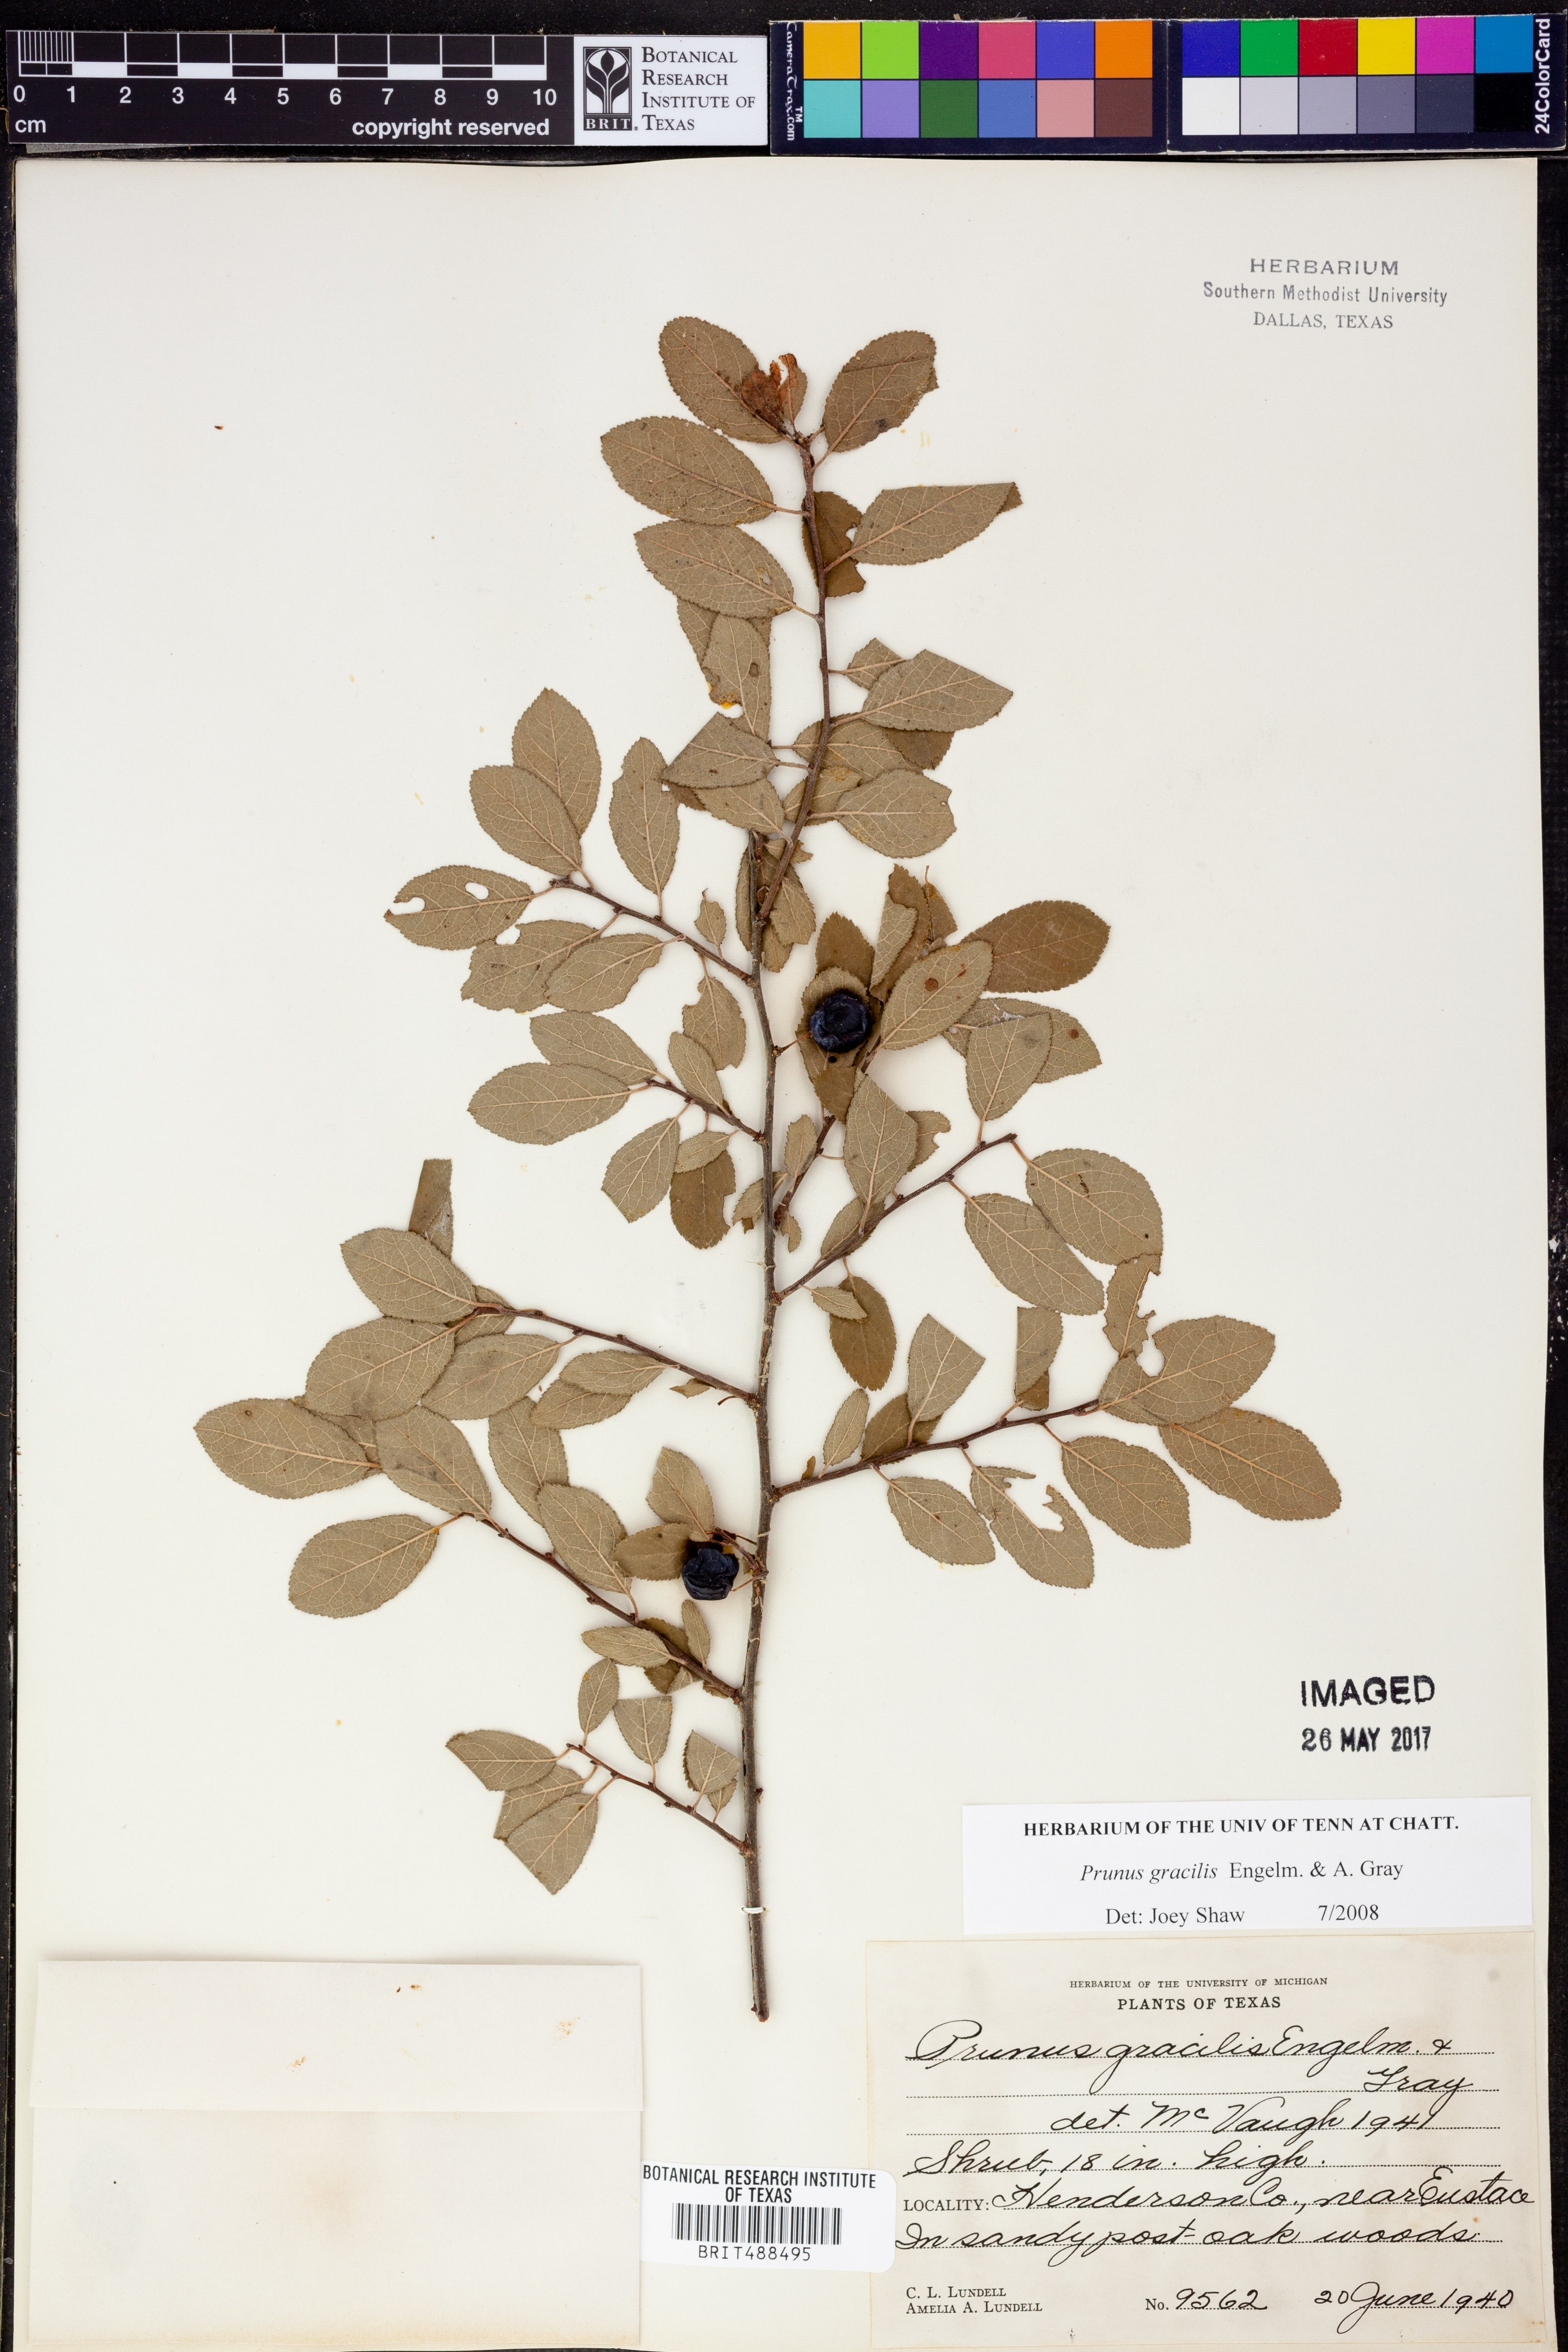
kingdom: Plantae
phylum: Tracheophyta
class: Magnoliopsida
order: Rosales
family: Rosaceae
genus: Prunus
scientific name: Prunus gracilis
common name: Oklahoma plum
